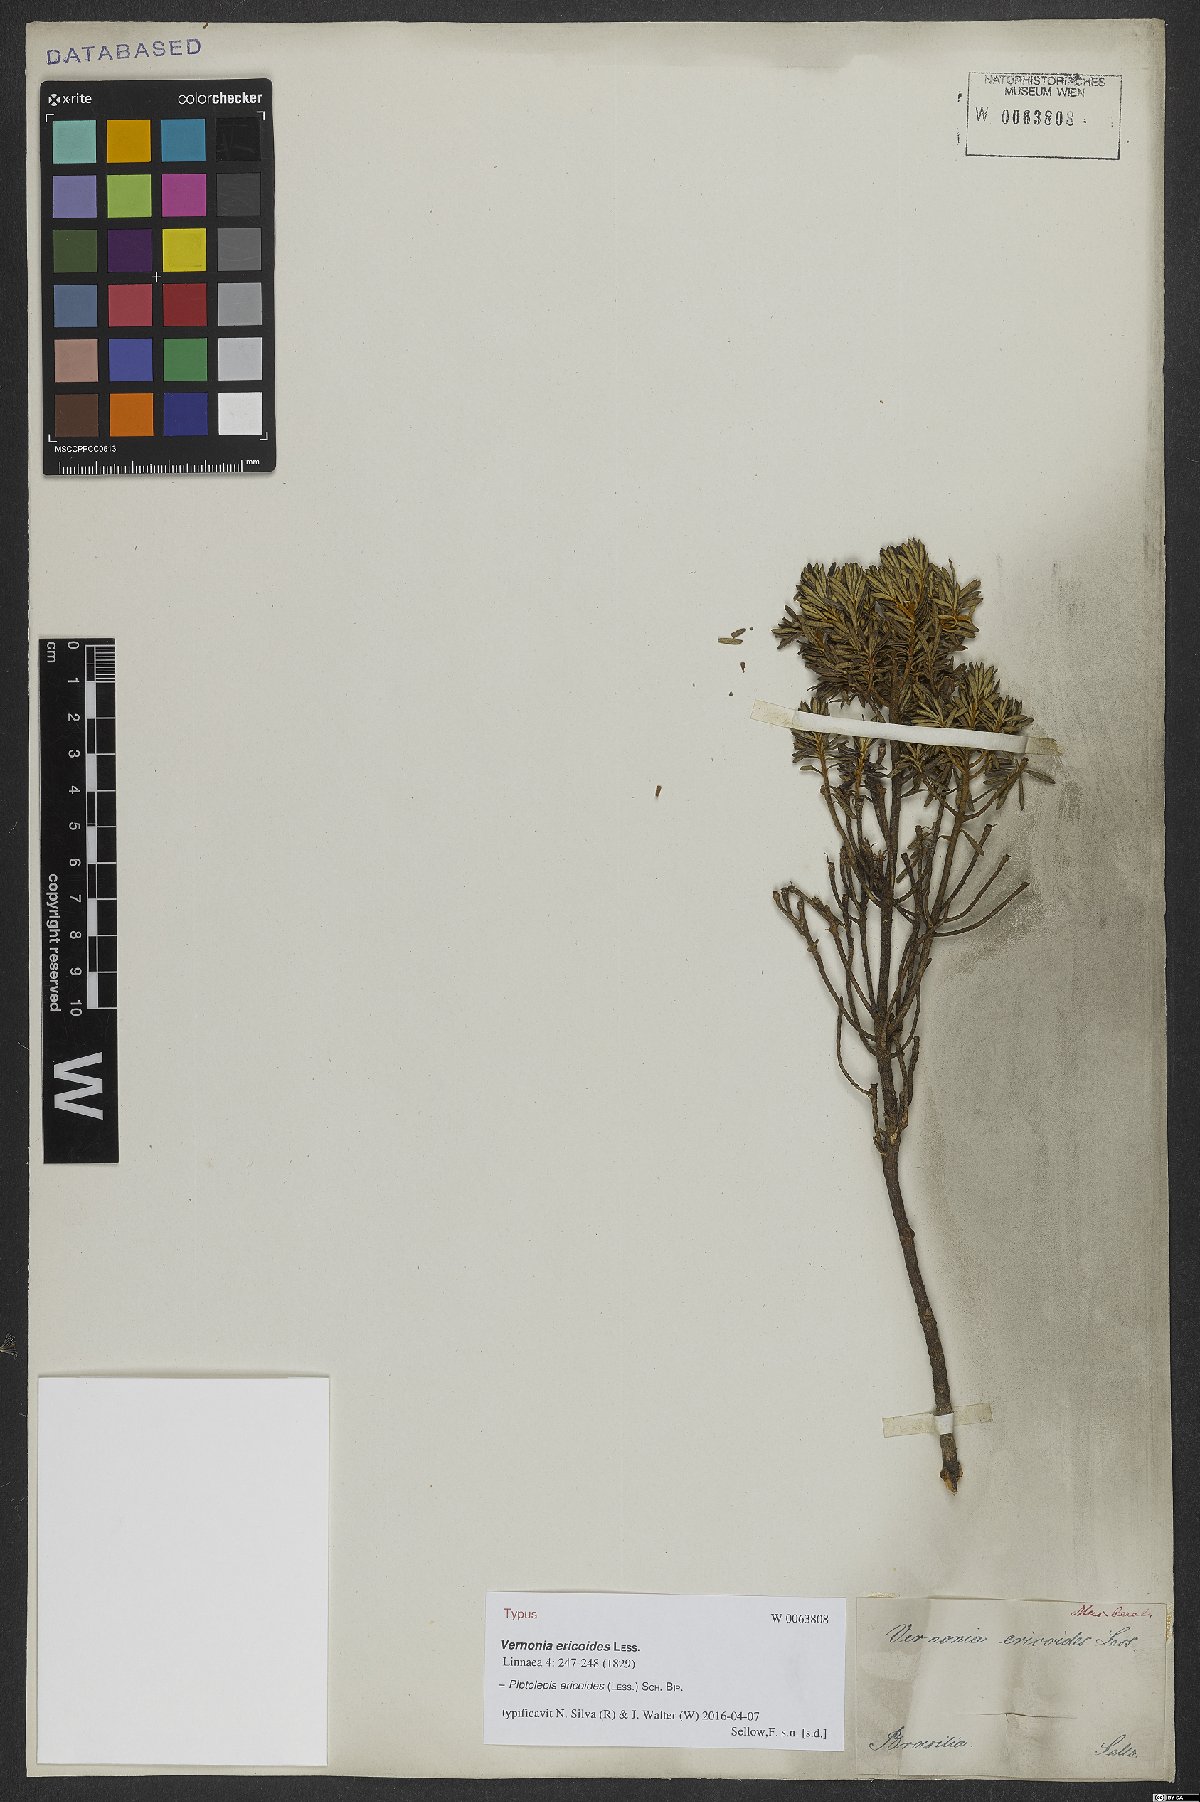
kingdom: Plantae
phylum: Tracheophyta
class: Magnoliopsida
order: Asterales
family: Asteraceae
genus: Piptolepis
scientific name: Piptolepis ericoides
